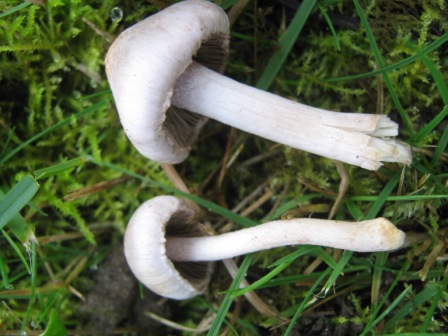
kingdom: Fungi
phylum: Basidiomycota
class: Agaricomycetes
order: Agaricales
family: Inocybaceae
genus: Inocybe
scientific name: Inocybe geophylla
